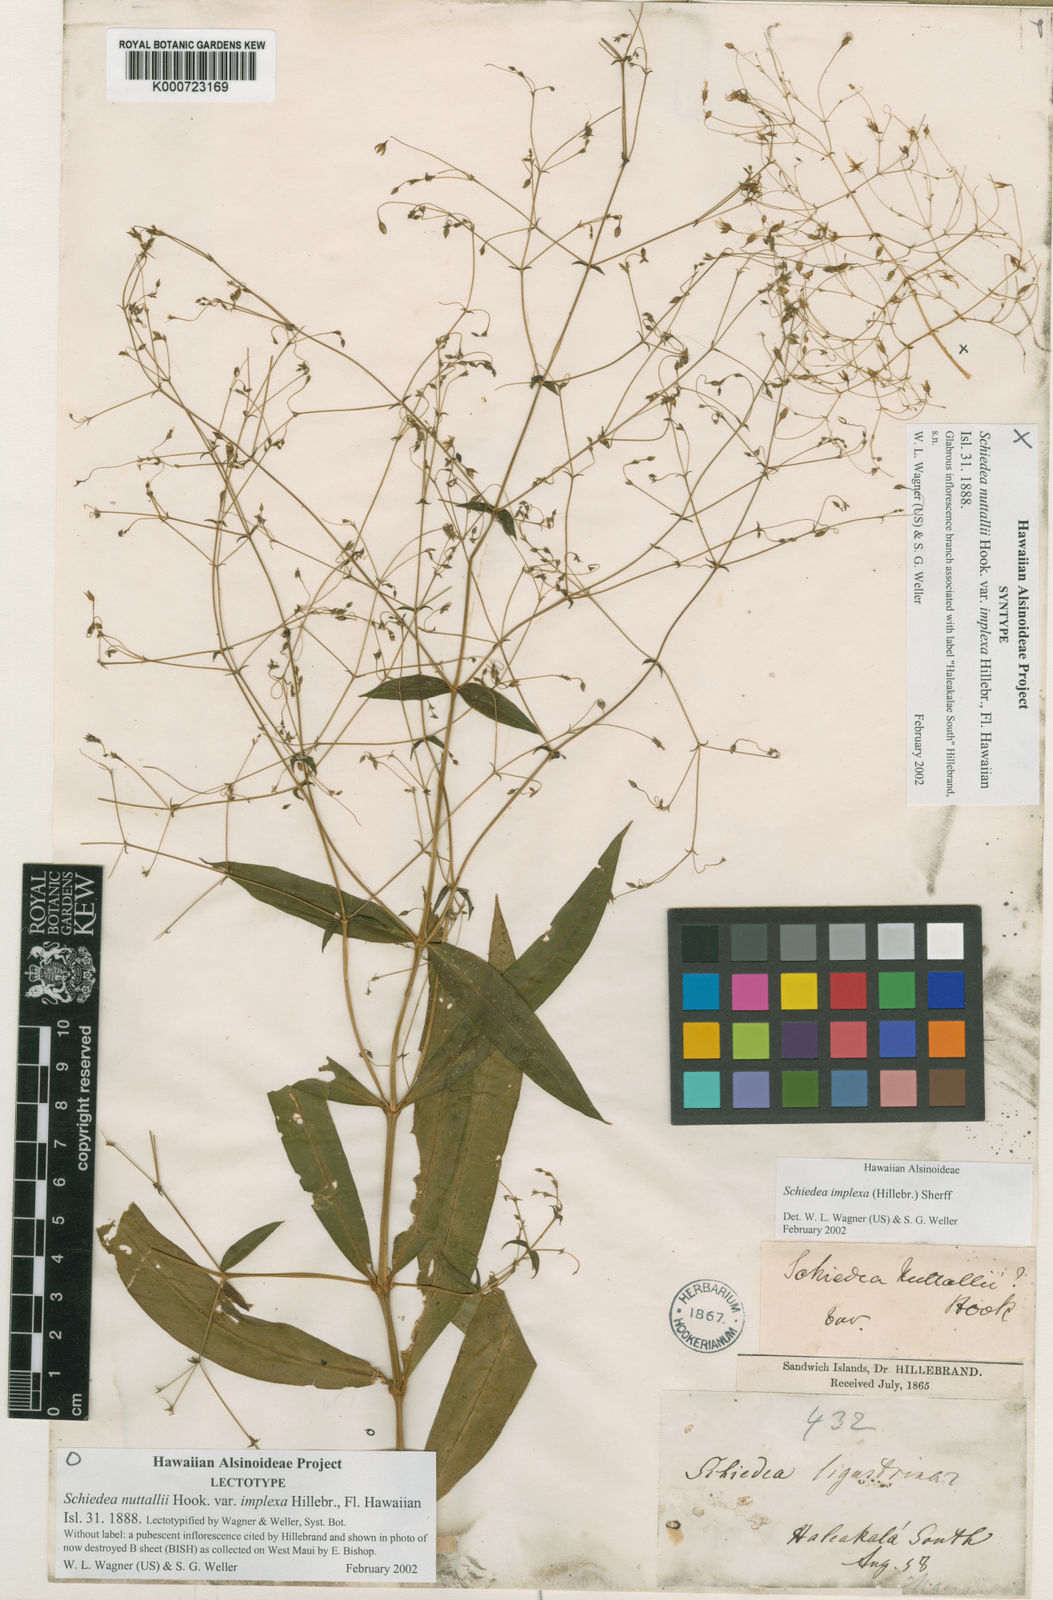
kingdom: Plantae
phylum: Tracheophyta
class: Magnoliopsida
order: Caryophyllales
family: Caryophyllaceae
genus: Schiedea
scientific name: Schiedea nuttallii
